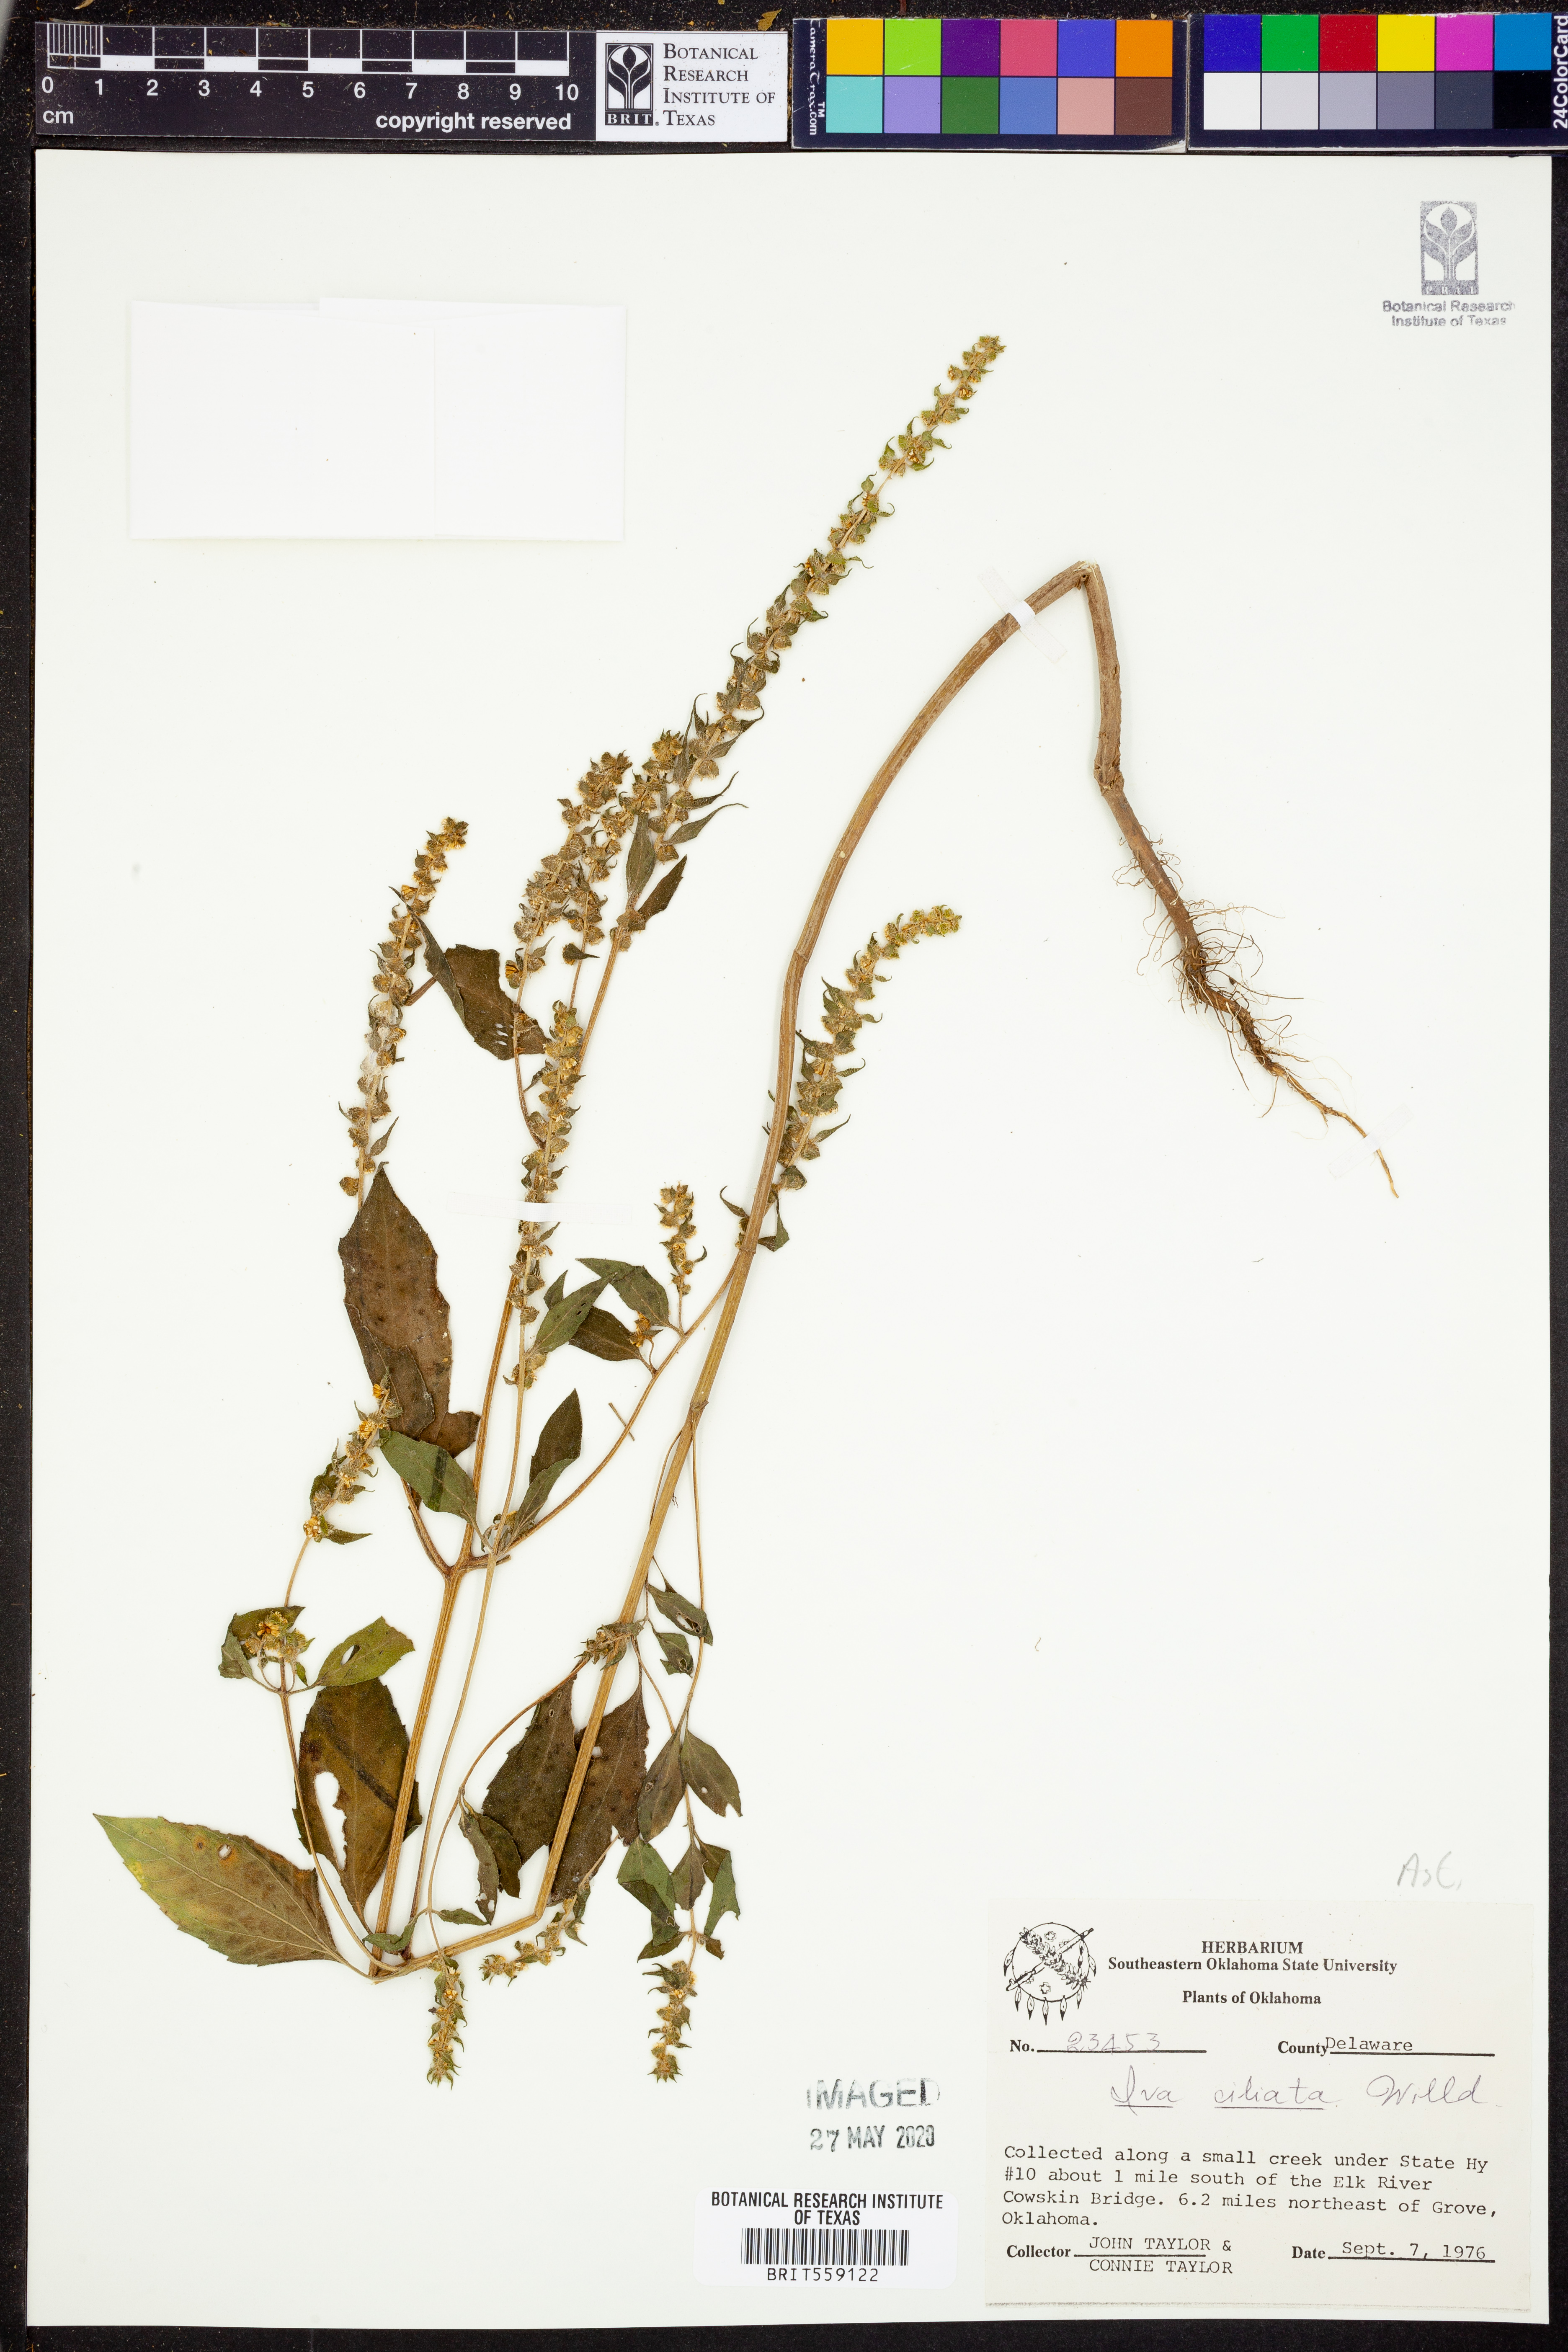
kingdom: Plantae
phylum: Tracheophyta
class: Magnoliopsida
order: Asterales
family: Asteraceae
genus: Iva
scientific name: Iva annua
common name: Marsh-elder
